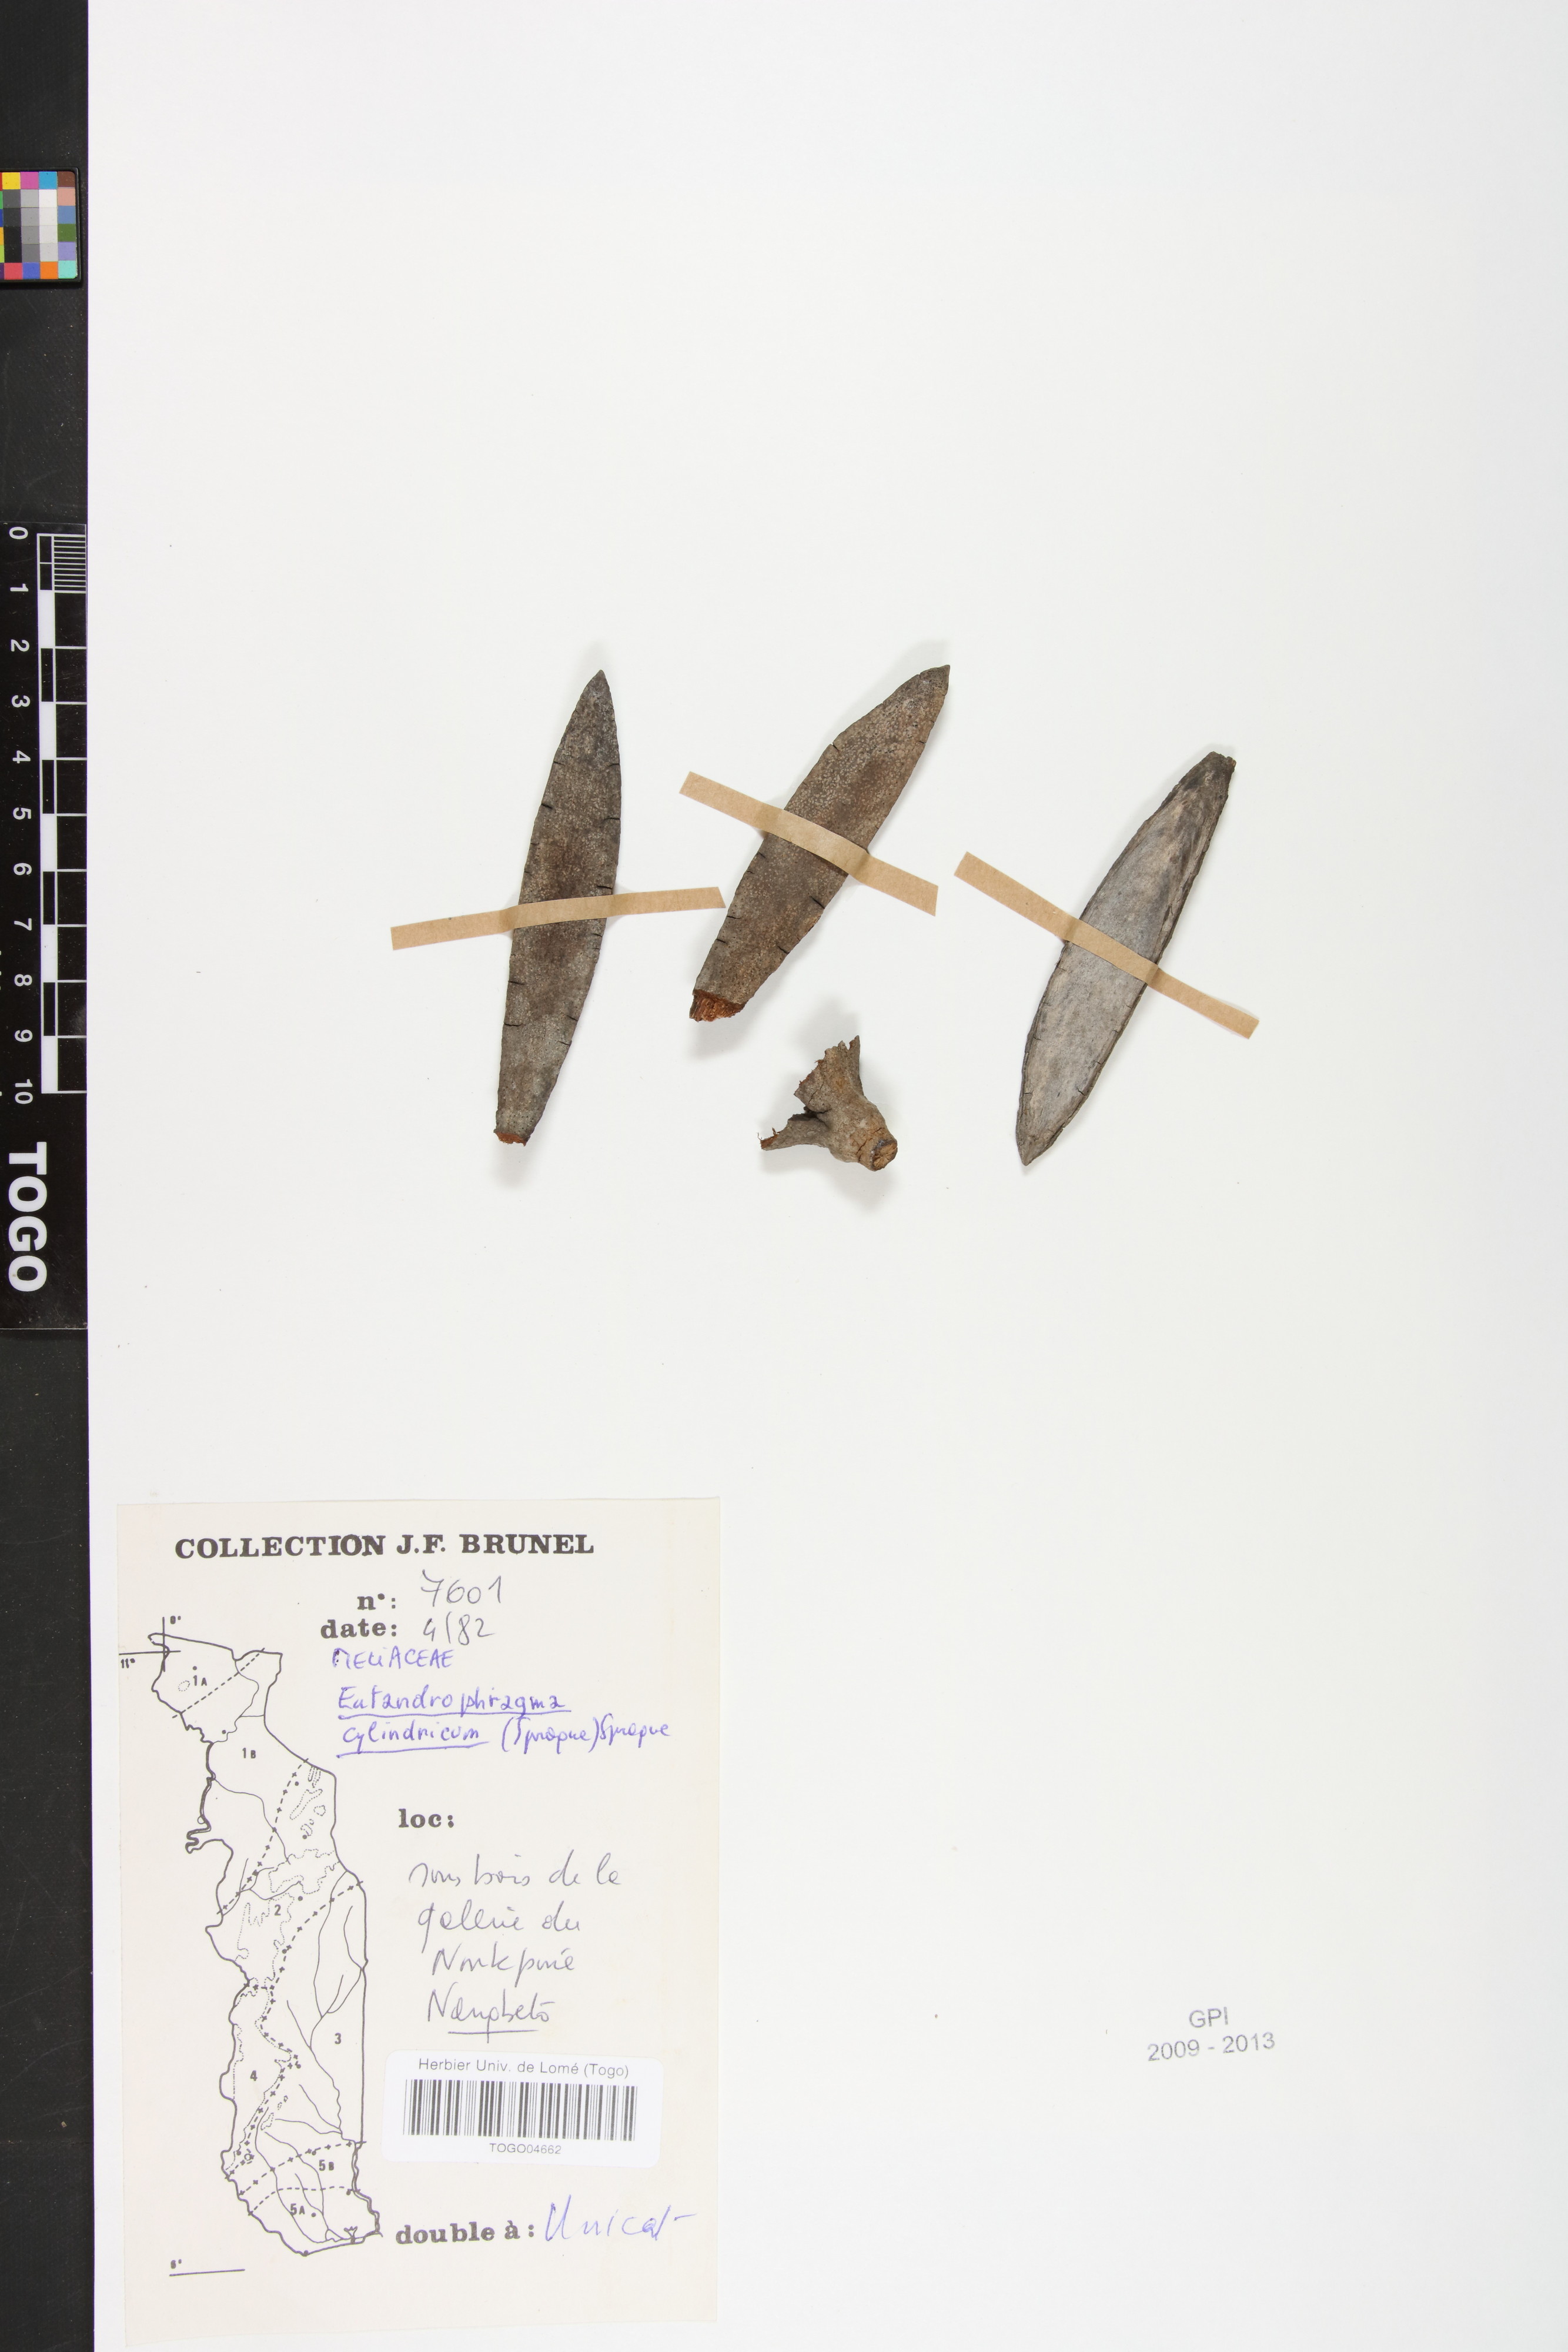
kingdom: Plantae
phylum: Tracheophyta
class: Magnoliopsida
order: Sapindales
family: Meliaceae
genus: Entandrophragma
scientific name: Entandrophragma cylindricum
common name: Sapele
